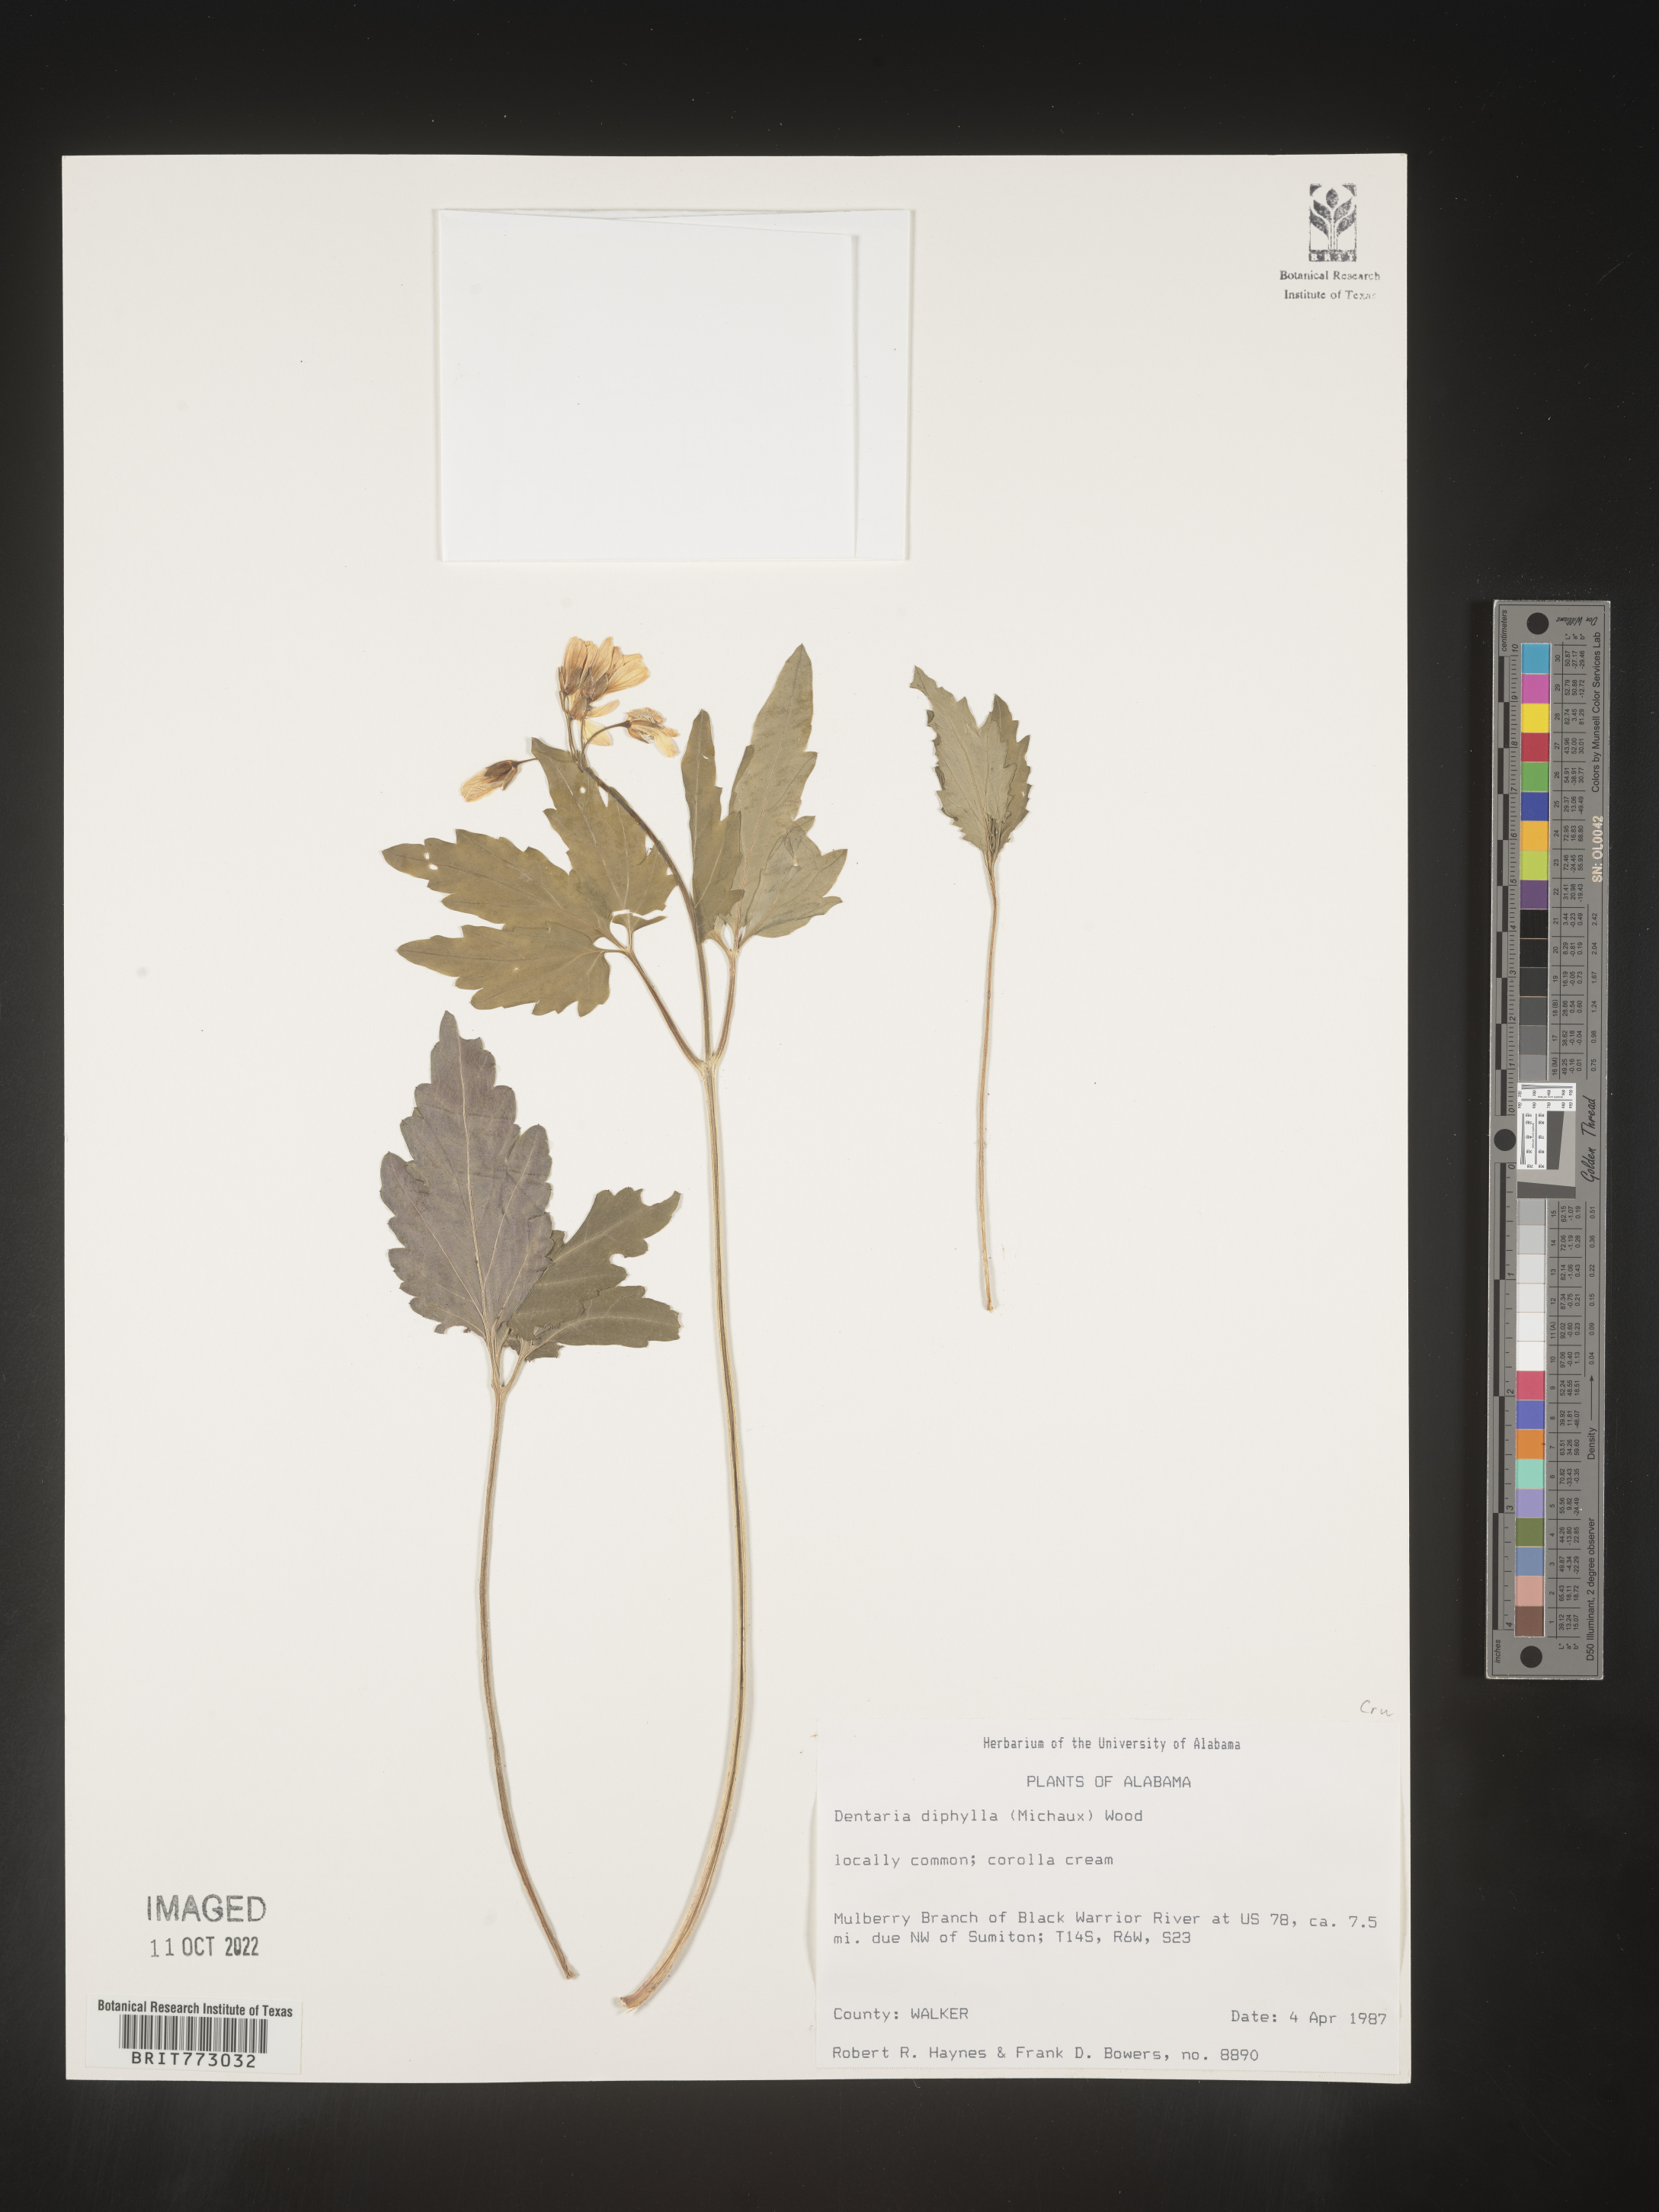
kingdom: Plantae
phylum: Tracheophyta
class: Magnoliopsida
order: Brassicales
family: Brassicaceae
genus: Cardamine
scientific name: Cardamine diphylla
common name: Broad-leaved toothwort
